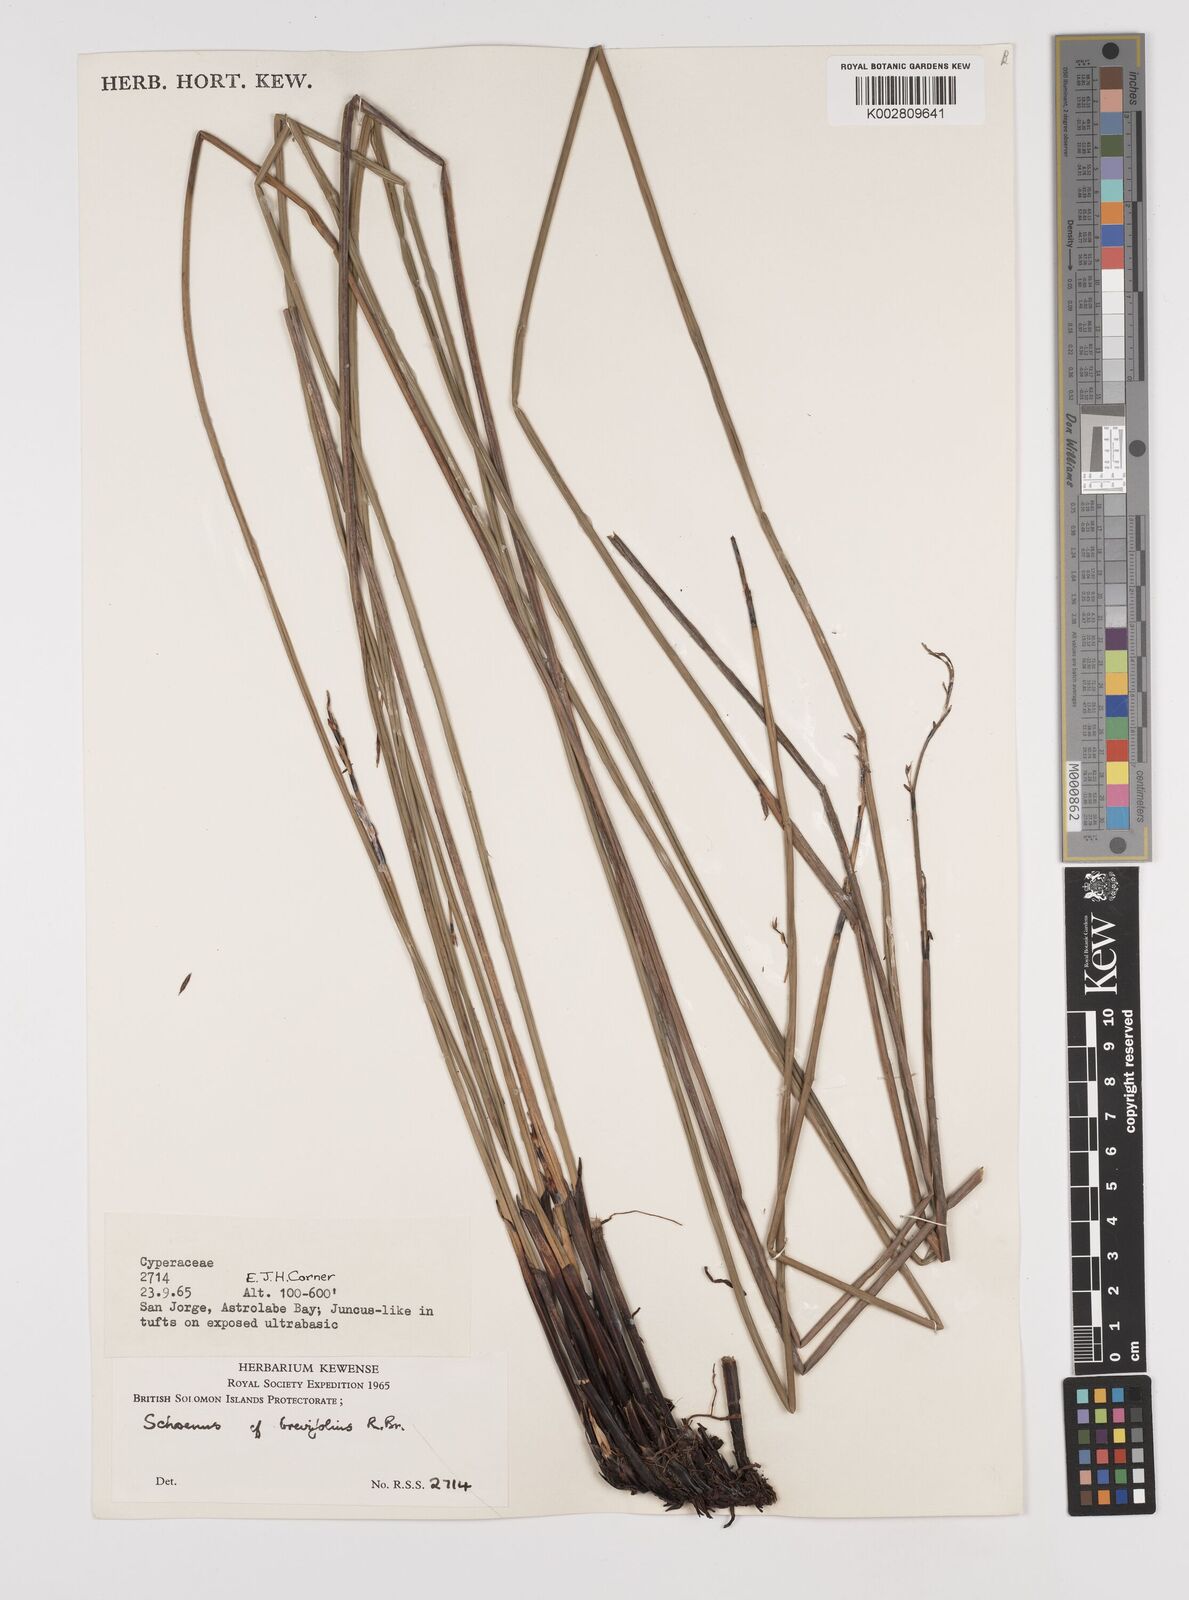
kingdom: Plantae
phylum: Tracheophyta
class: Liliopsida
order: Poales
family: Cyperaceae
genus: Schoenus
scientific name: Schoenus brevifolius
